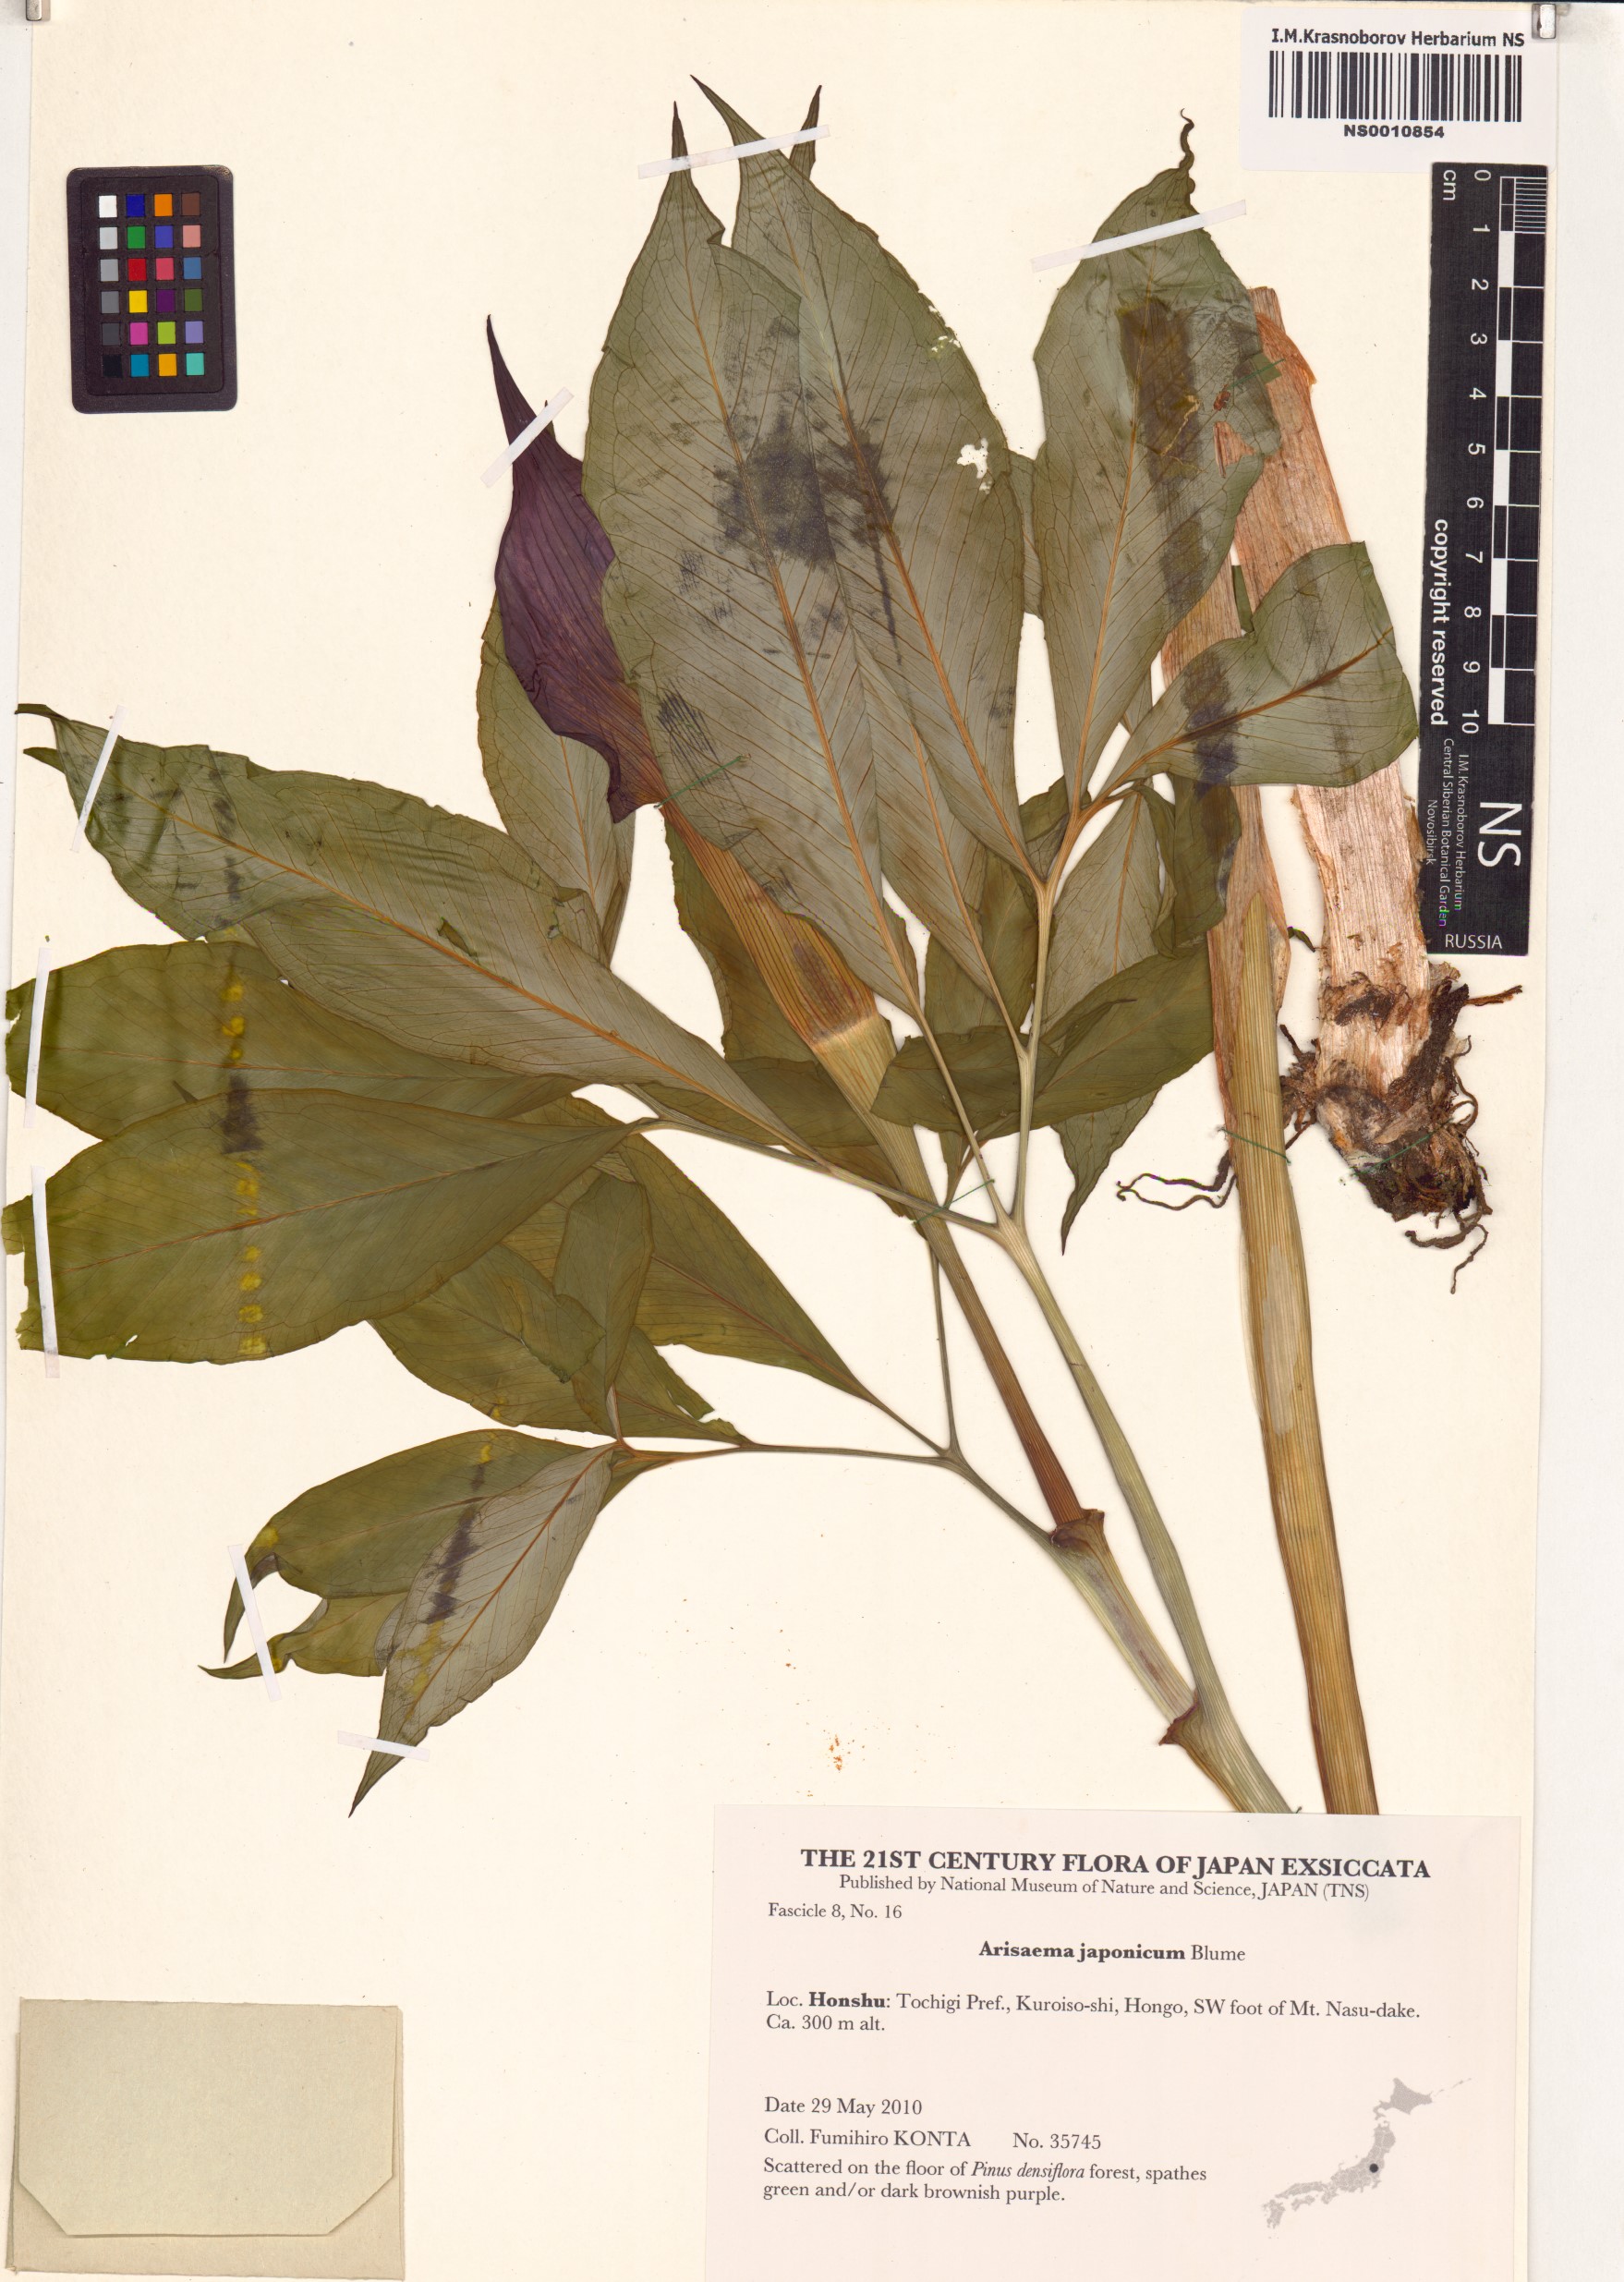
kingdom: Plantae
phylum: Tracheophyta
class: Liliopsida
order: Alismatales
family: Araceae
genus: Arisaema
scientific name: Arisaema japonicum
